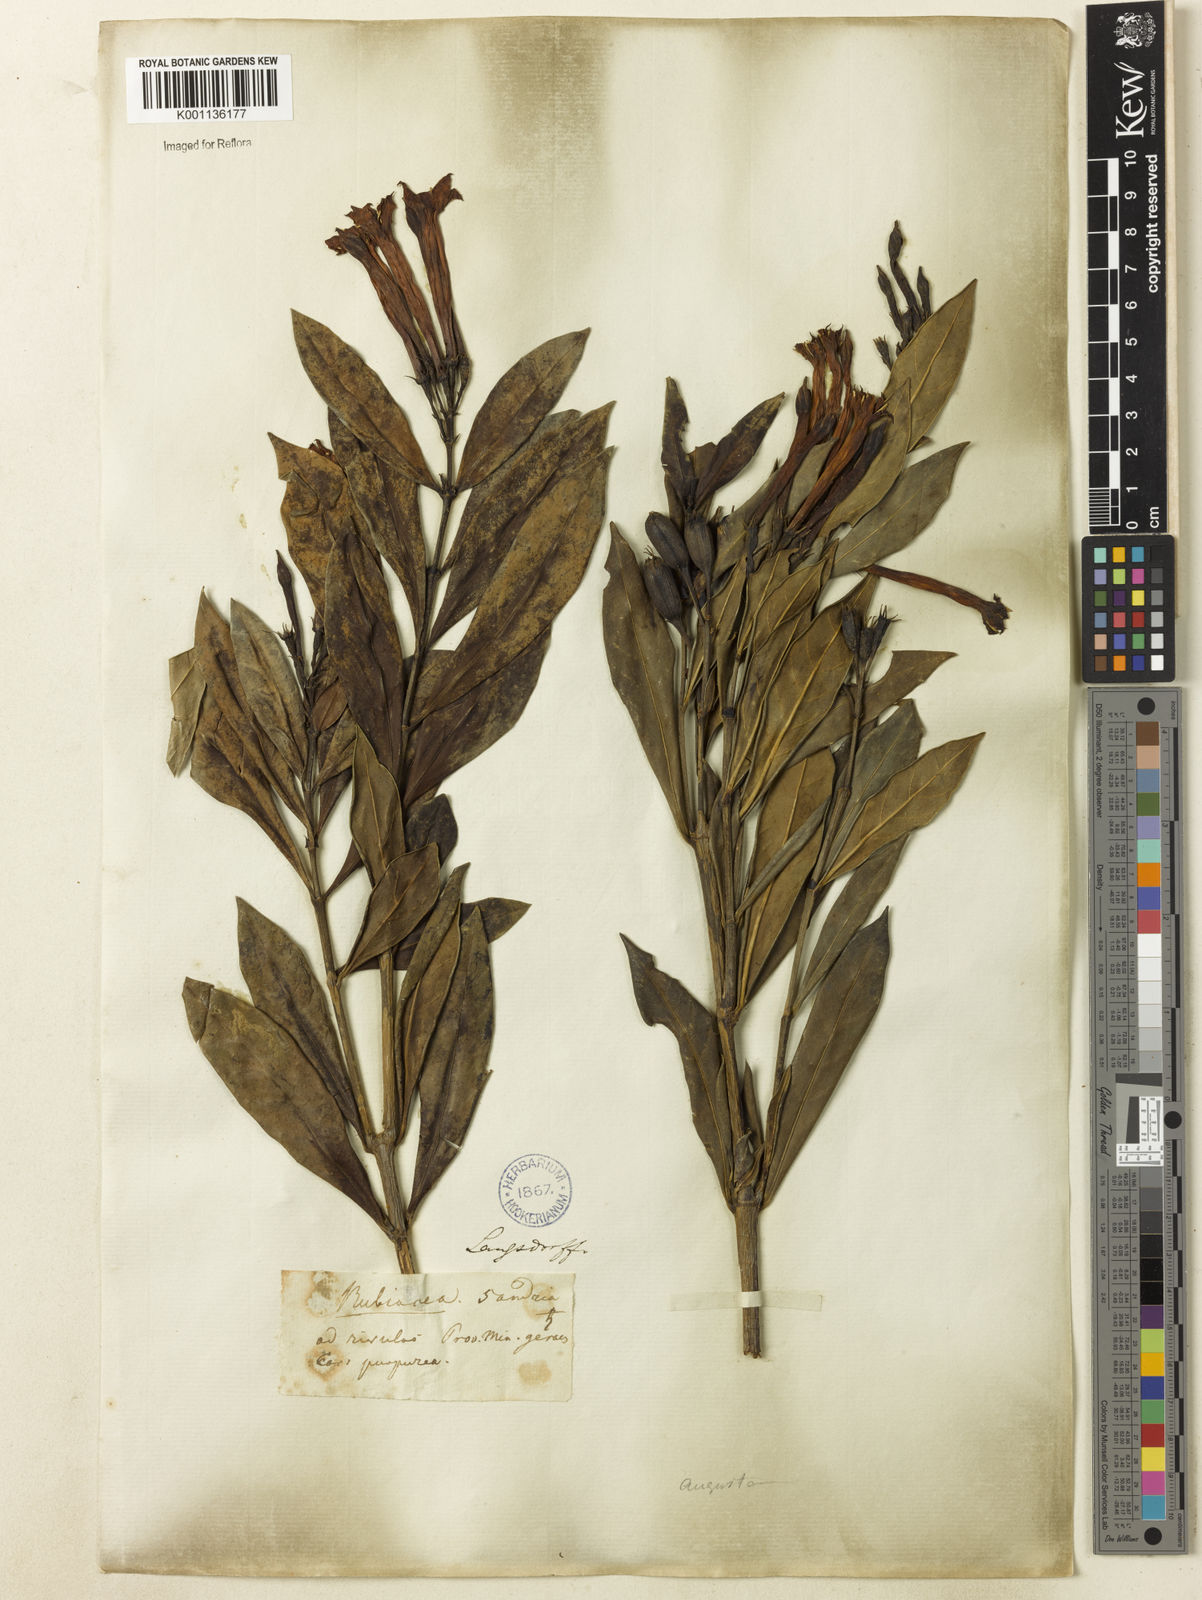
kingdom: Plantae
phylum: Tracheophyta
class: Magnoliopsida
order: Gentianales
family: Rubiaceae
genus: Augusta
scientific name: Augusta longifolia
